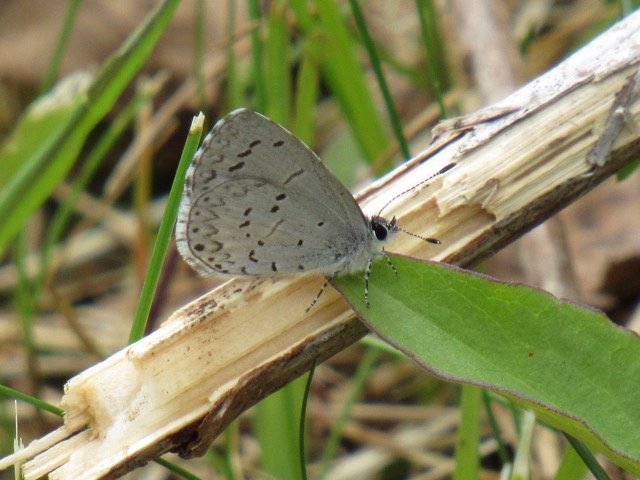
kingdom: Animalia
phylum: Arthropoda
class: Insecta
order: Lepidoptera
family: Lycaenidae
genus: Celastrina
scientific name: Celastrina
